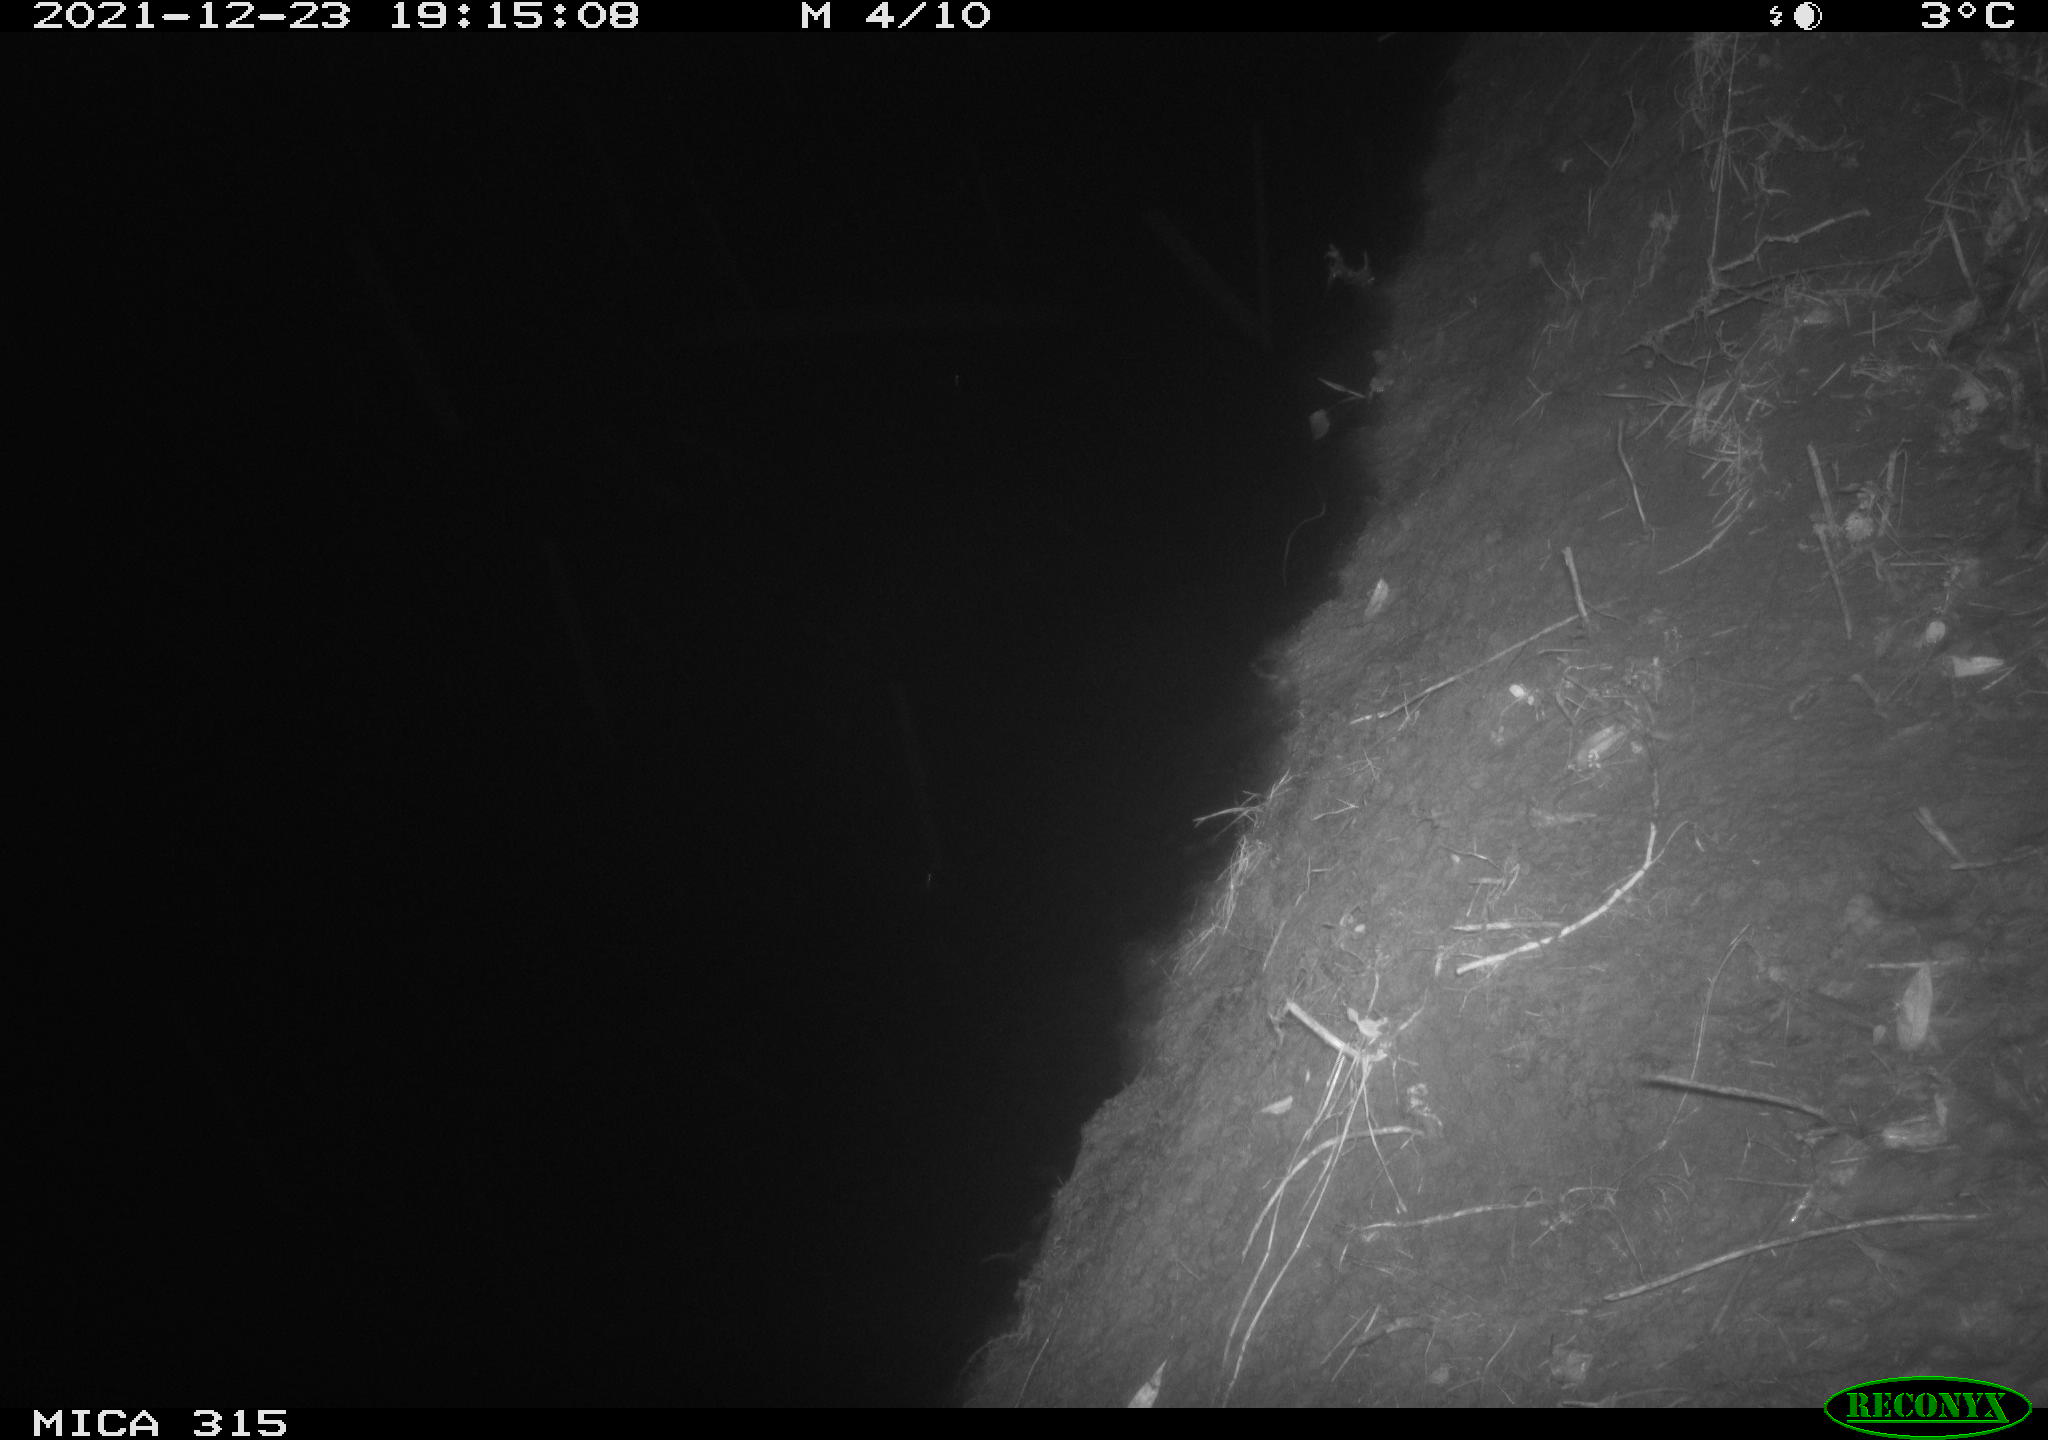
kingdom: Animalia
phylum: Chordata
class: Mammalia
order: Rodentia
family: Muridae
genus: Rattus
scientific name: Rattus norvegicus
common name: Brown rat
